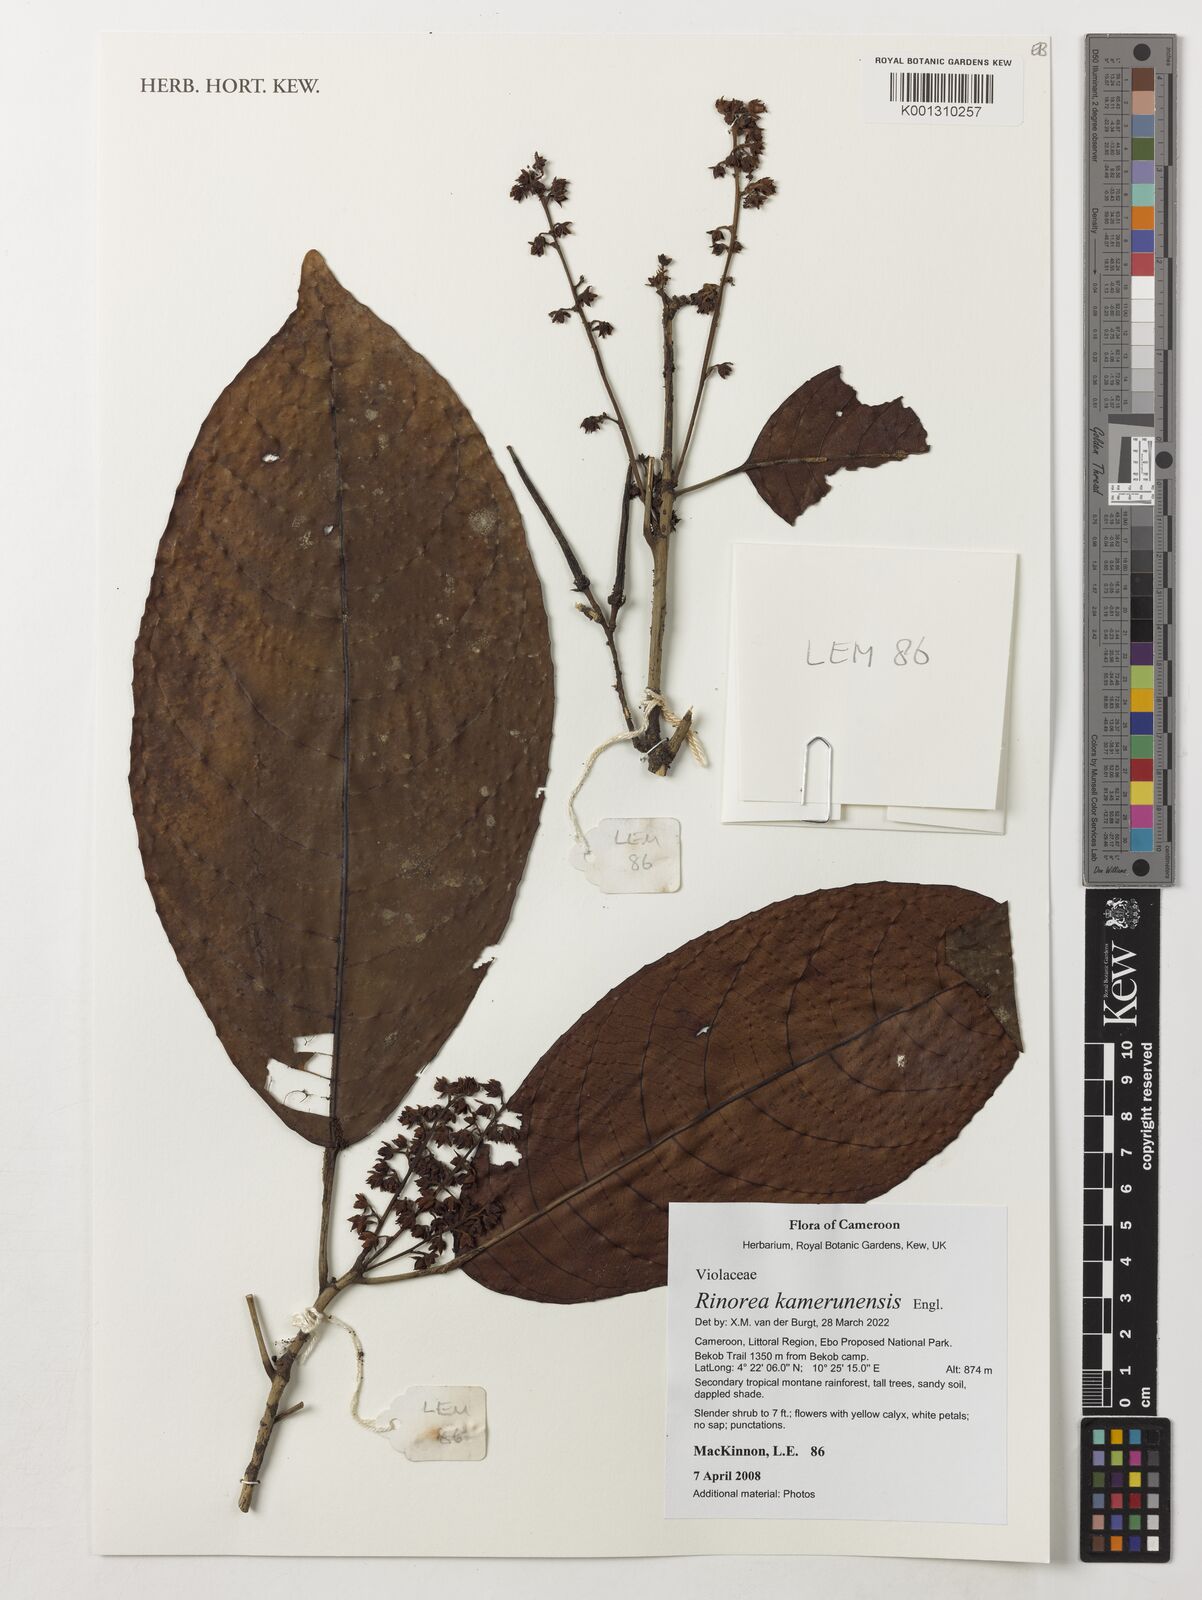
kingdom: Plantae
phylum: Tracheophyta
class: Magnoliopsida
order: Malpighiales
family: Violaceae
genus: Rinorea
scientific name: Rinorea kamerunensis
